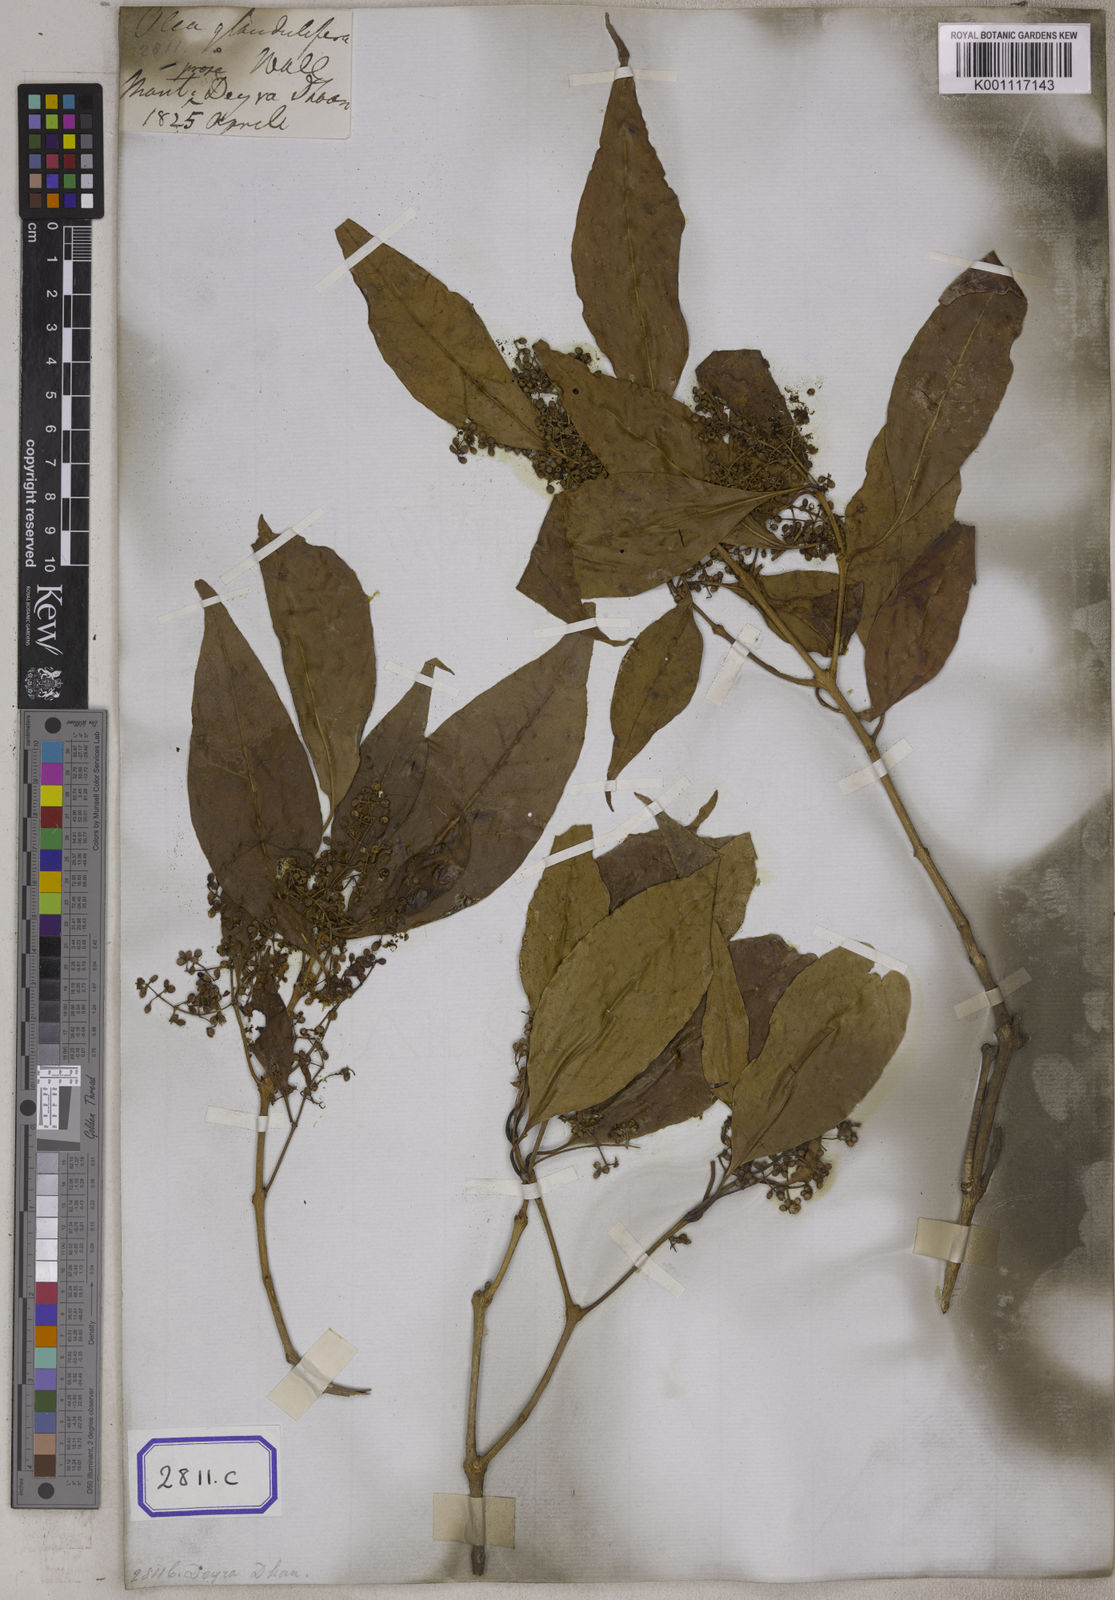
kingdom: Plantae
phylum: Tracheophyta
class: Magnoliopsida
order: Lamiales
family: Oleaceae
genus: Olea
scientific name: Olea paniculata
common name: Australian olive
